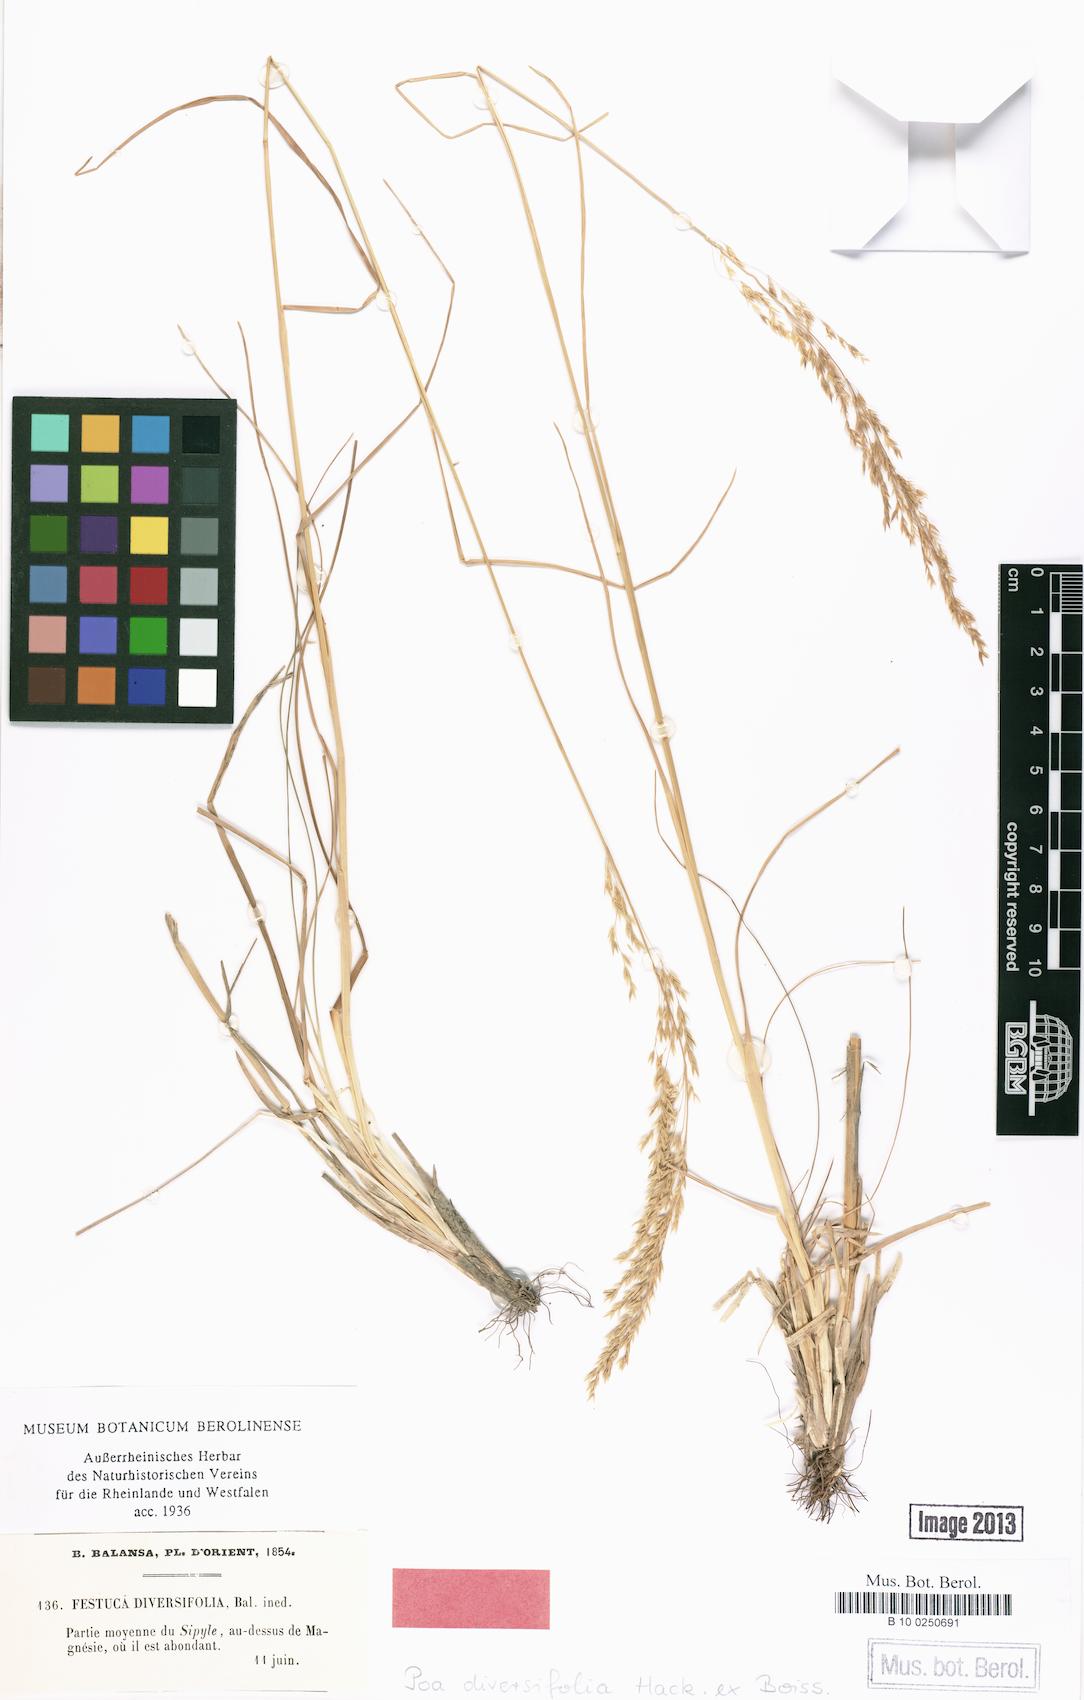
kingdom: Plantae
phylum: Tracheophyta
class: Liliopsida
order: Poales
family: Poaceae
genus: Poa
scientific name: Poa diversifolia
